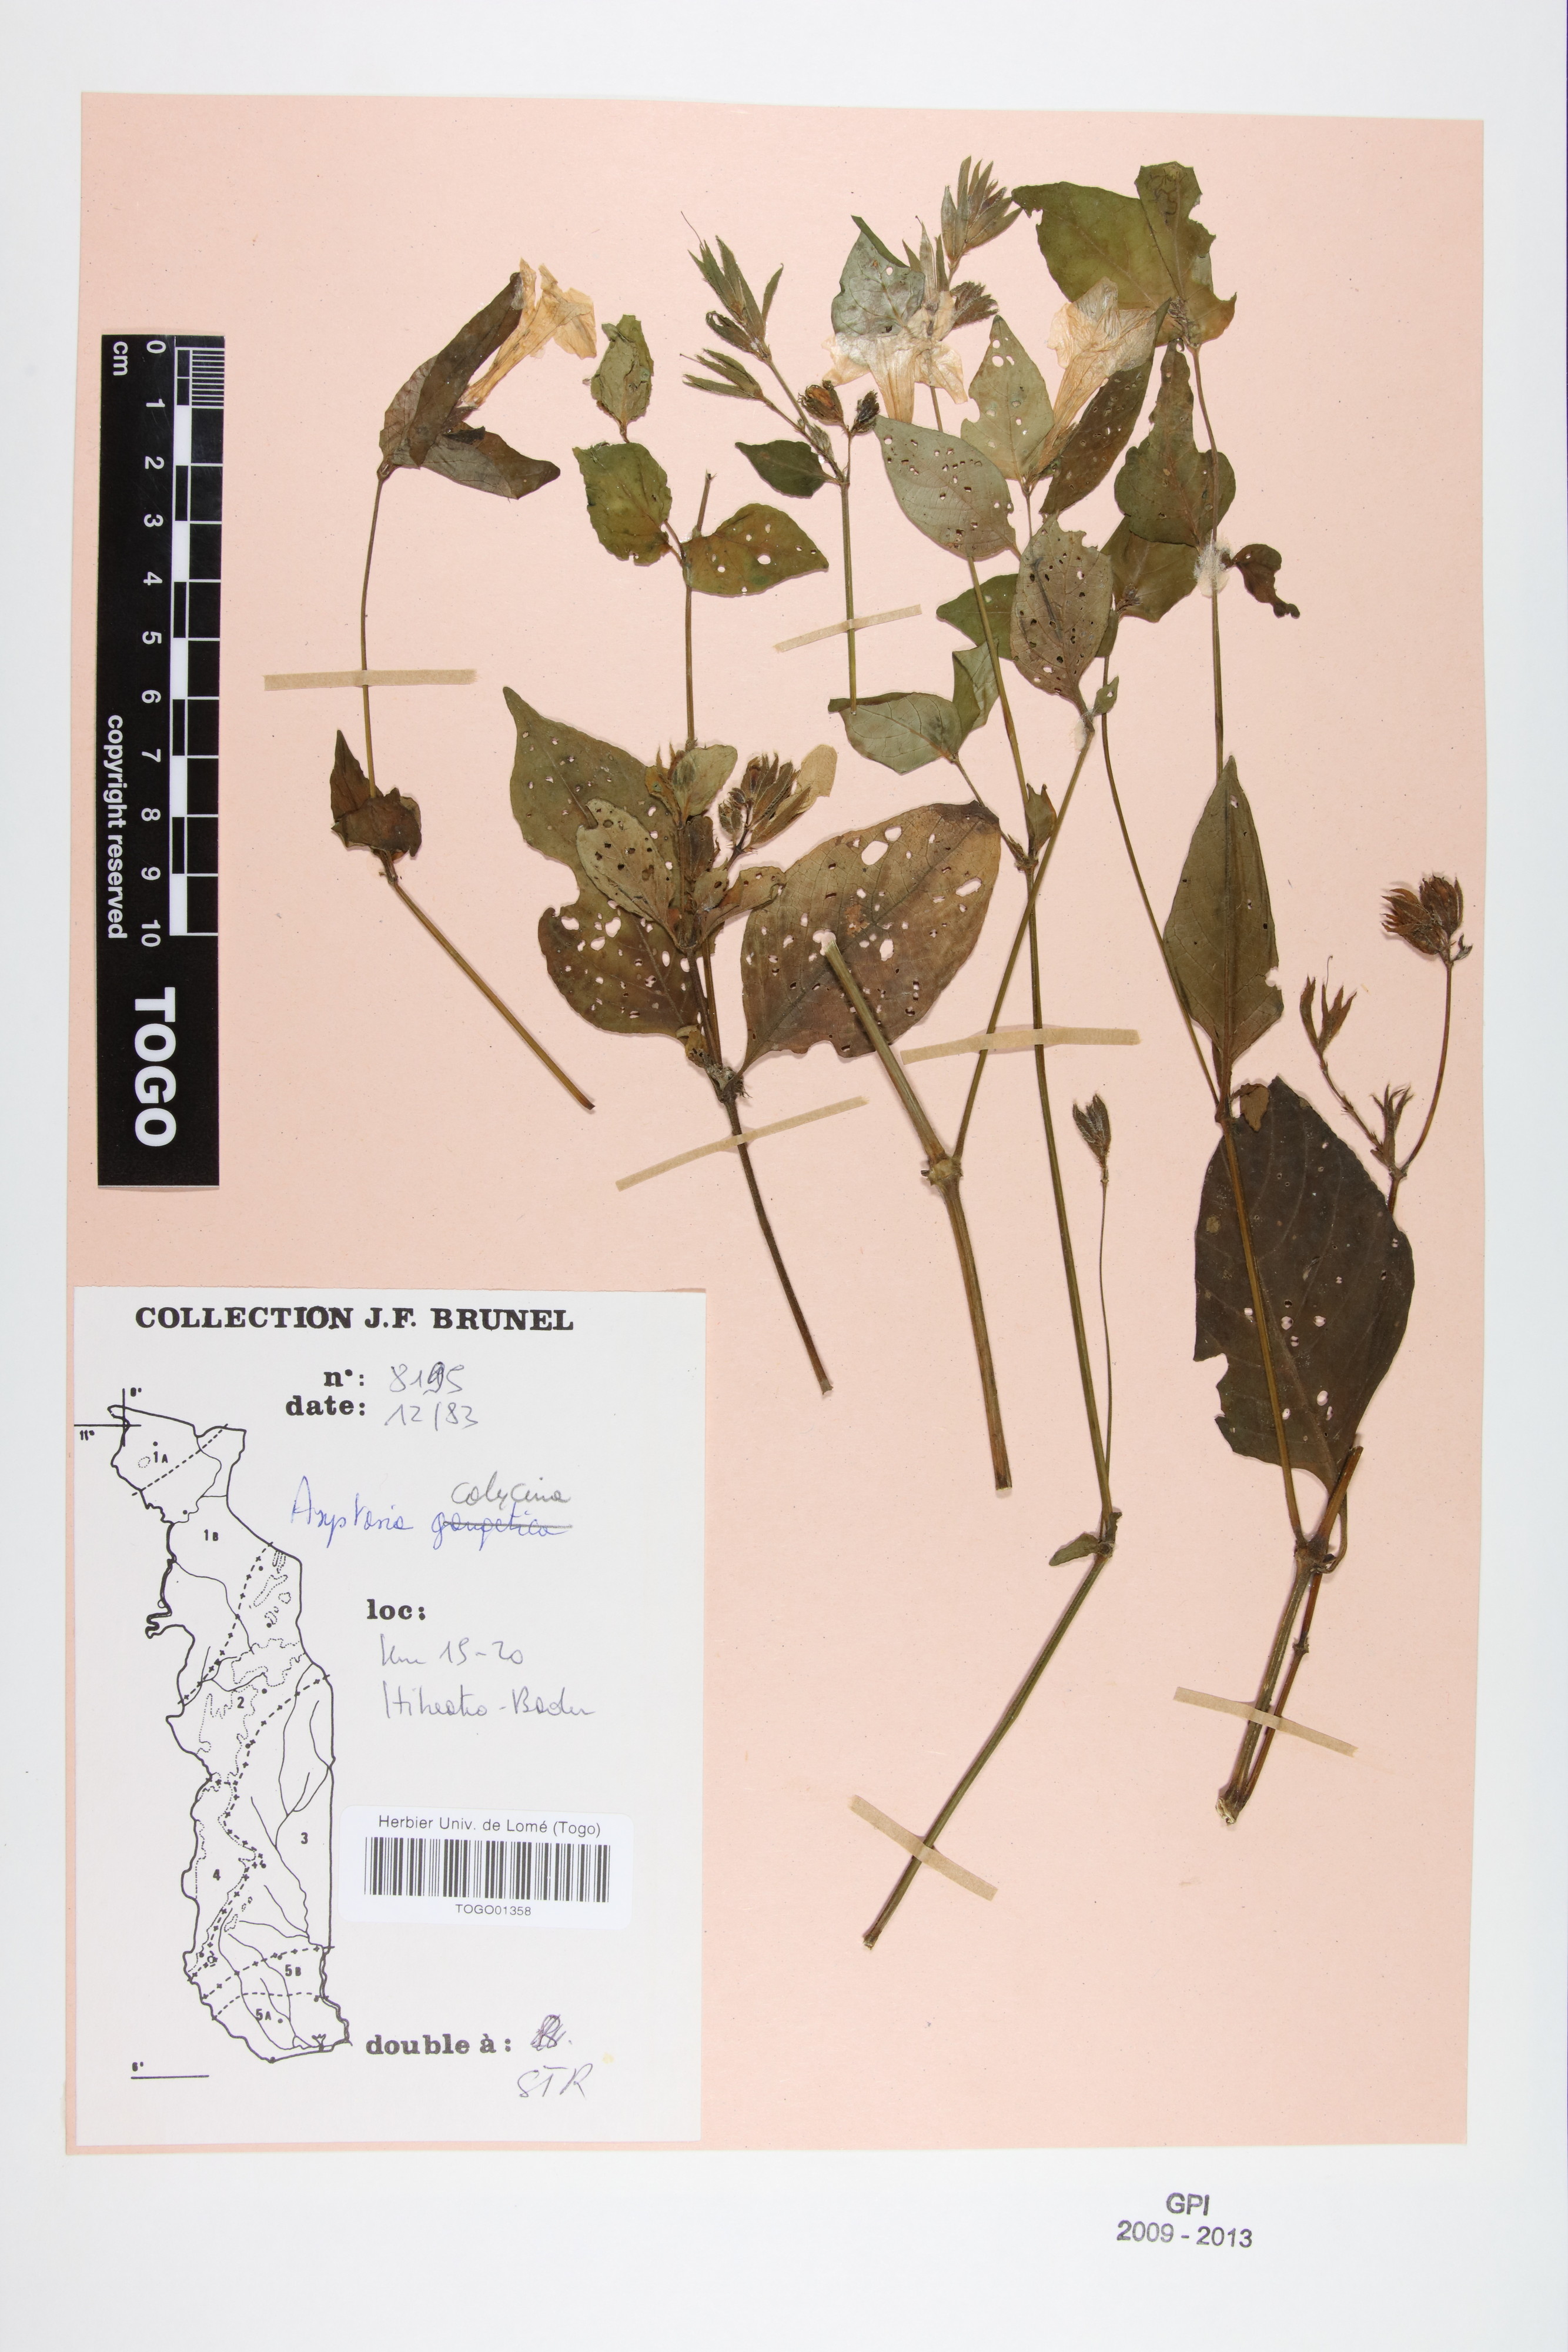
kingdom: Plantae
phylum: Tracheophyta
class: Magnoliopsida
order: Lamiales
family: Acanthaceae
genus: Asystasia
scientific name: Asystasia buettneri
